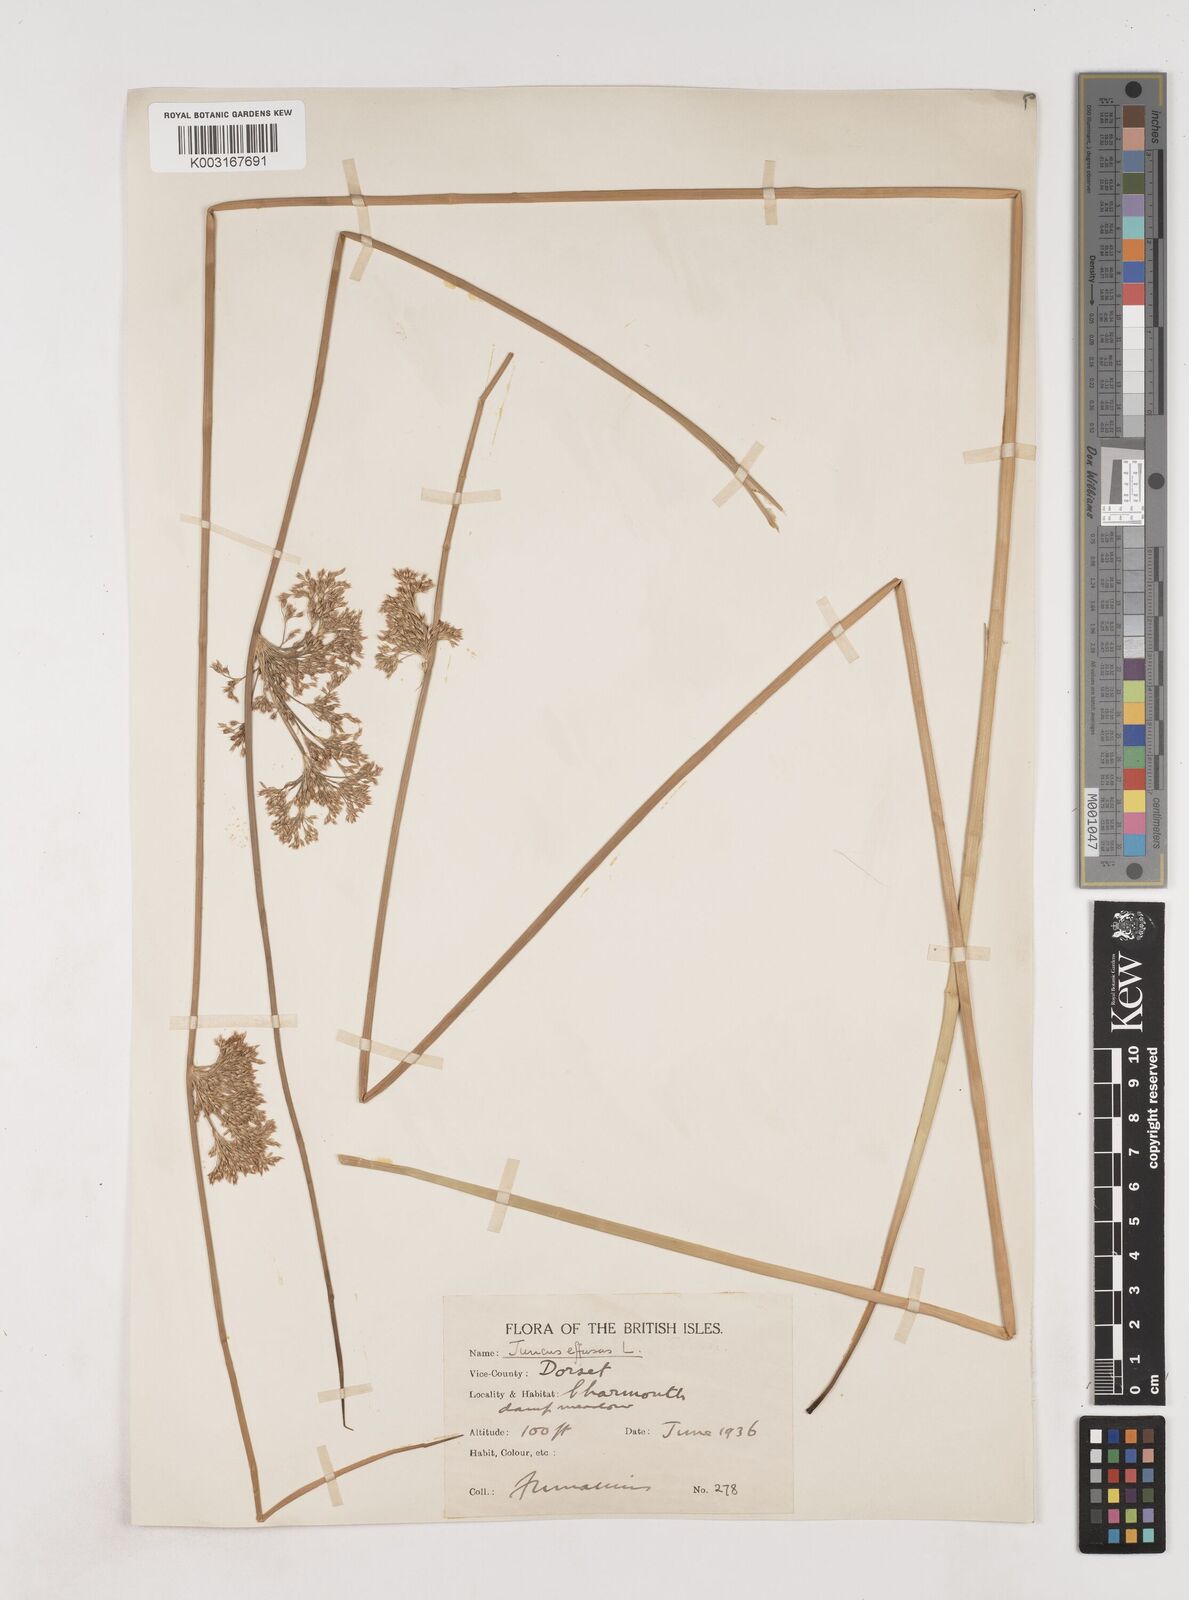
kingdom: Plantae
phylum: Tracheophyta
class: Liliopsida
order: Poales
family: Juncaceae
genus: Juncus
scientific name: Juncus effusus
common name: Soft rush
